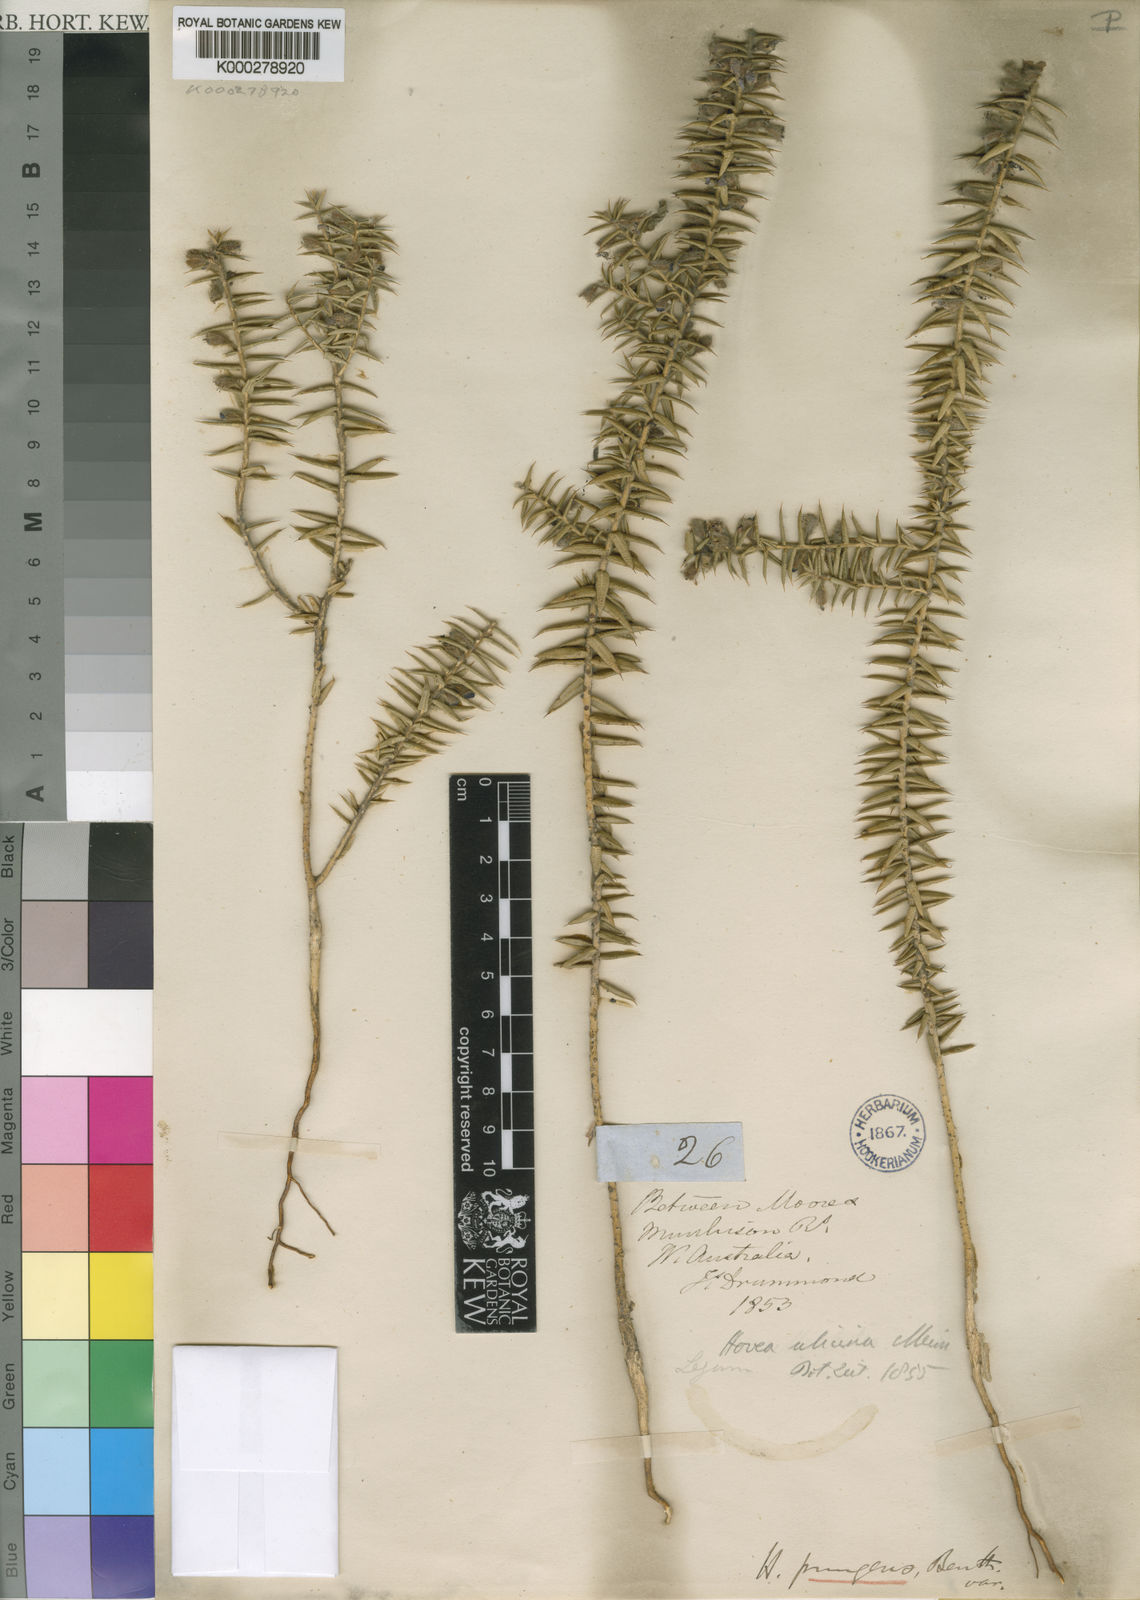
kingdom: Plantae
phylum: Tracheophyta
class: Magnoliopsida
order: Fabales
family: Fabaceae
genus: Hovea
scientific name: Hovea pungens
